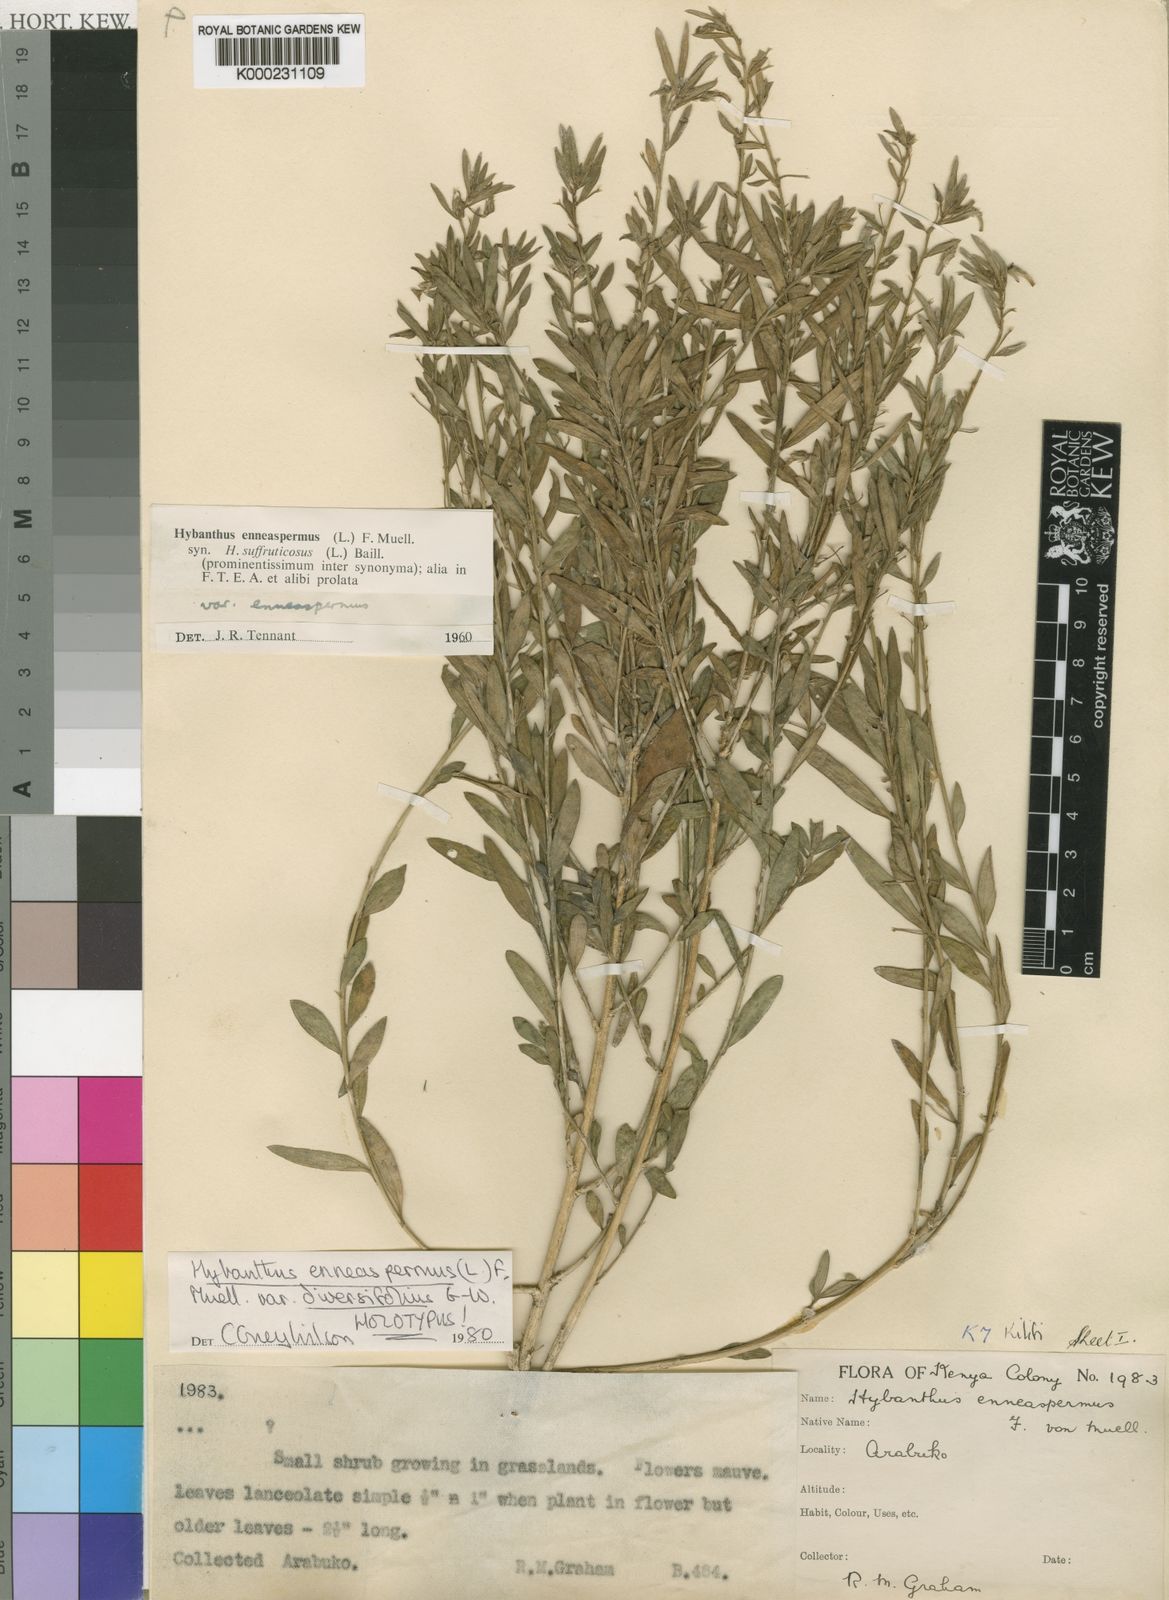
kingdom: Plantae
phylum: Tracheophyta
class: Magnoliopsida
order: Malpighiales
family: Violaceae
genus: Pigea
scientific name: Pigea enneasperma
